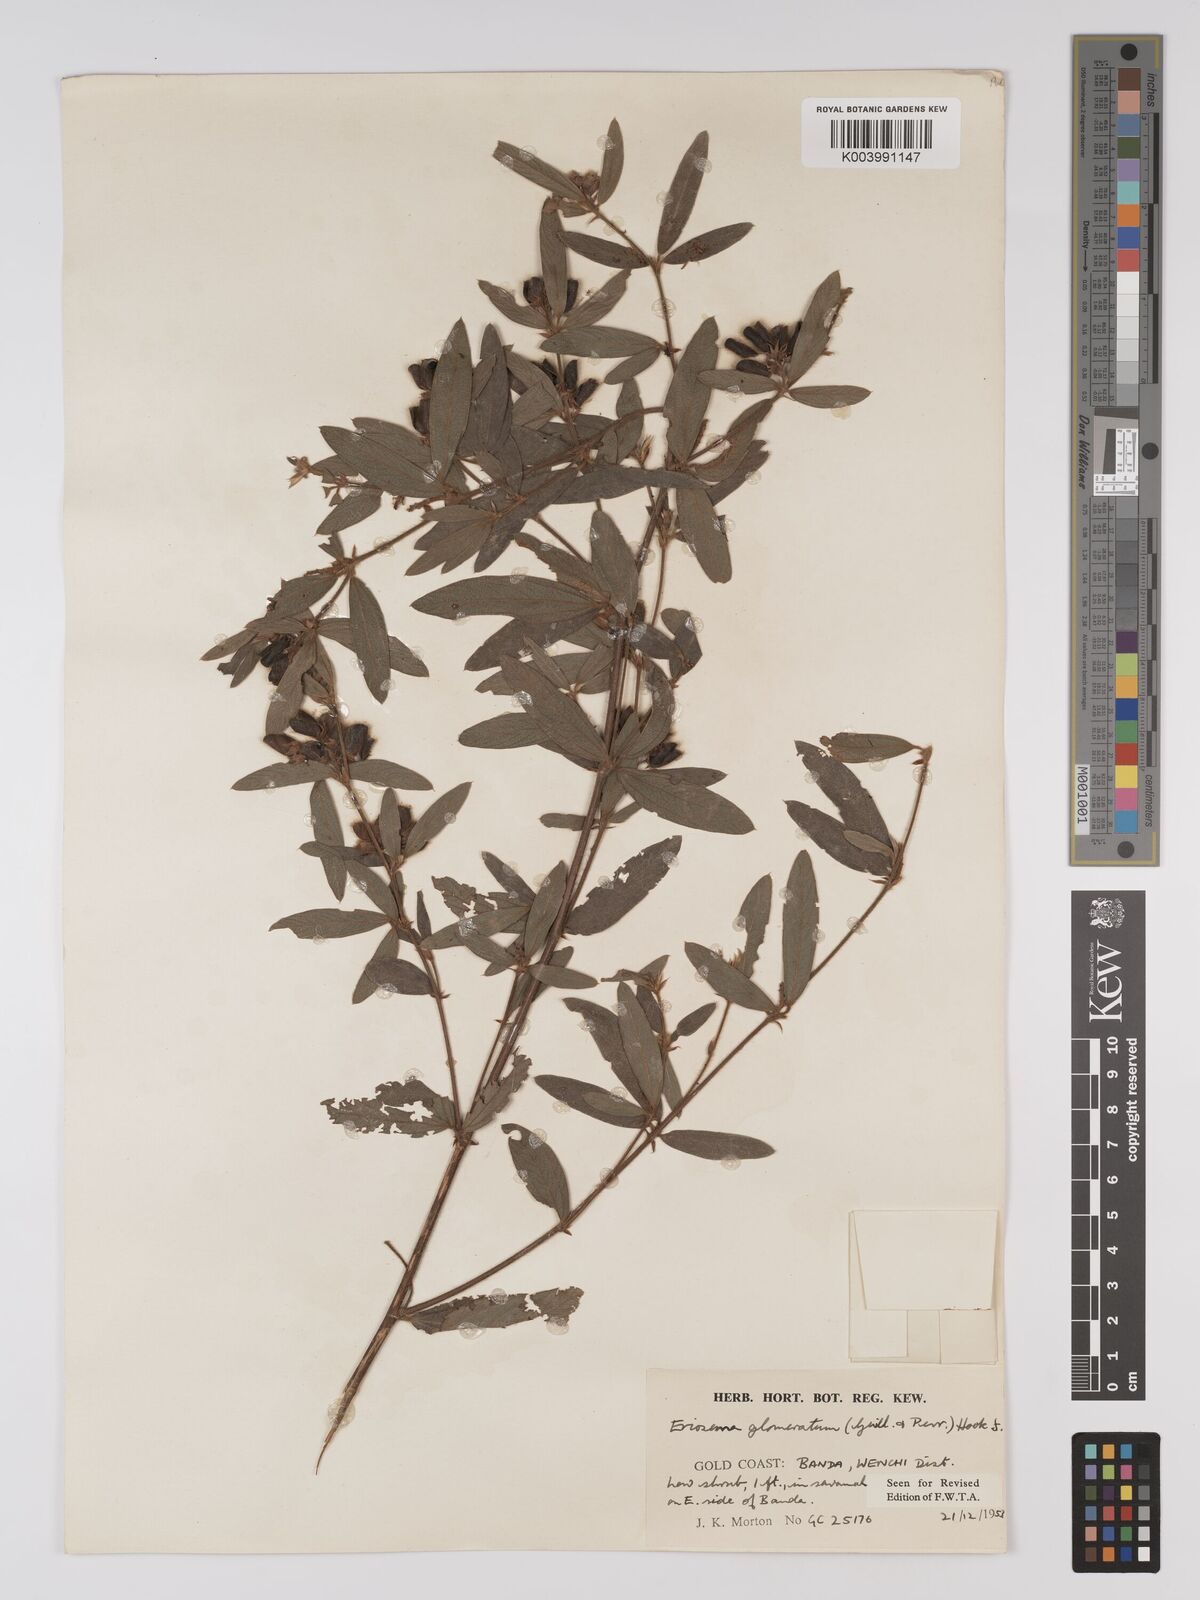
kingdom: Plantae
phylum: Tracheophyta
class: Magnoliopsida
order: Fabales
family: Fabaceae
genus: Eriosema
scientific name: Eriosema glomeratum
